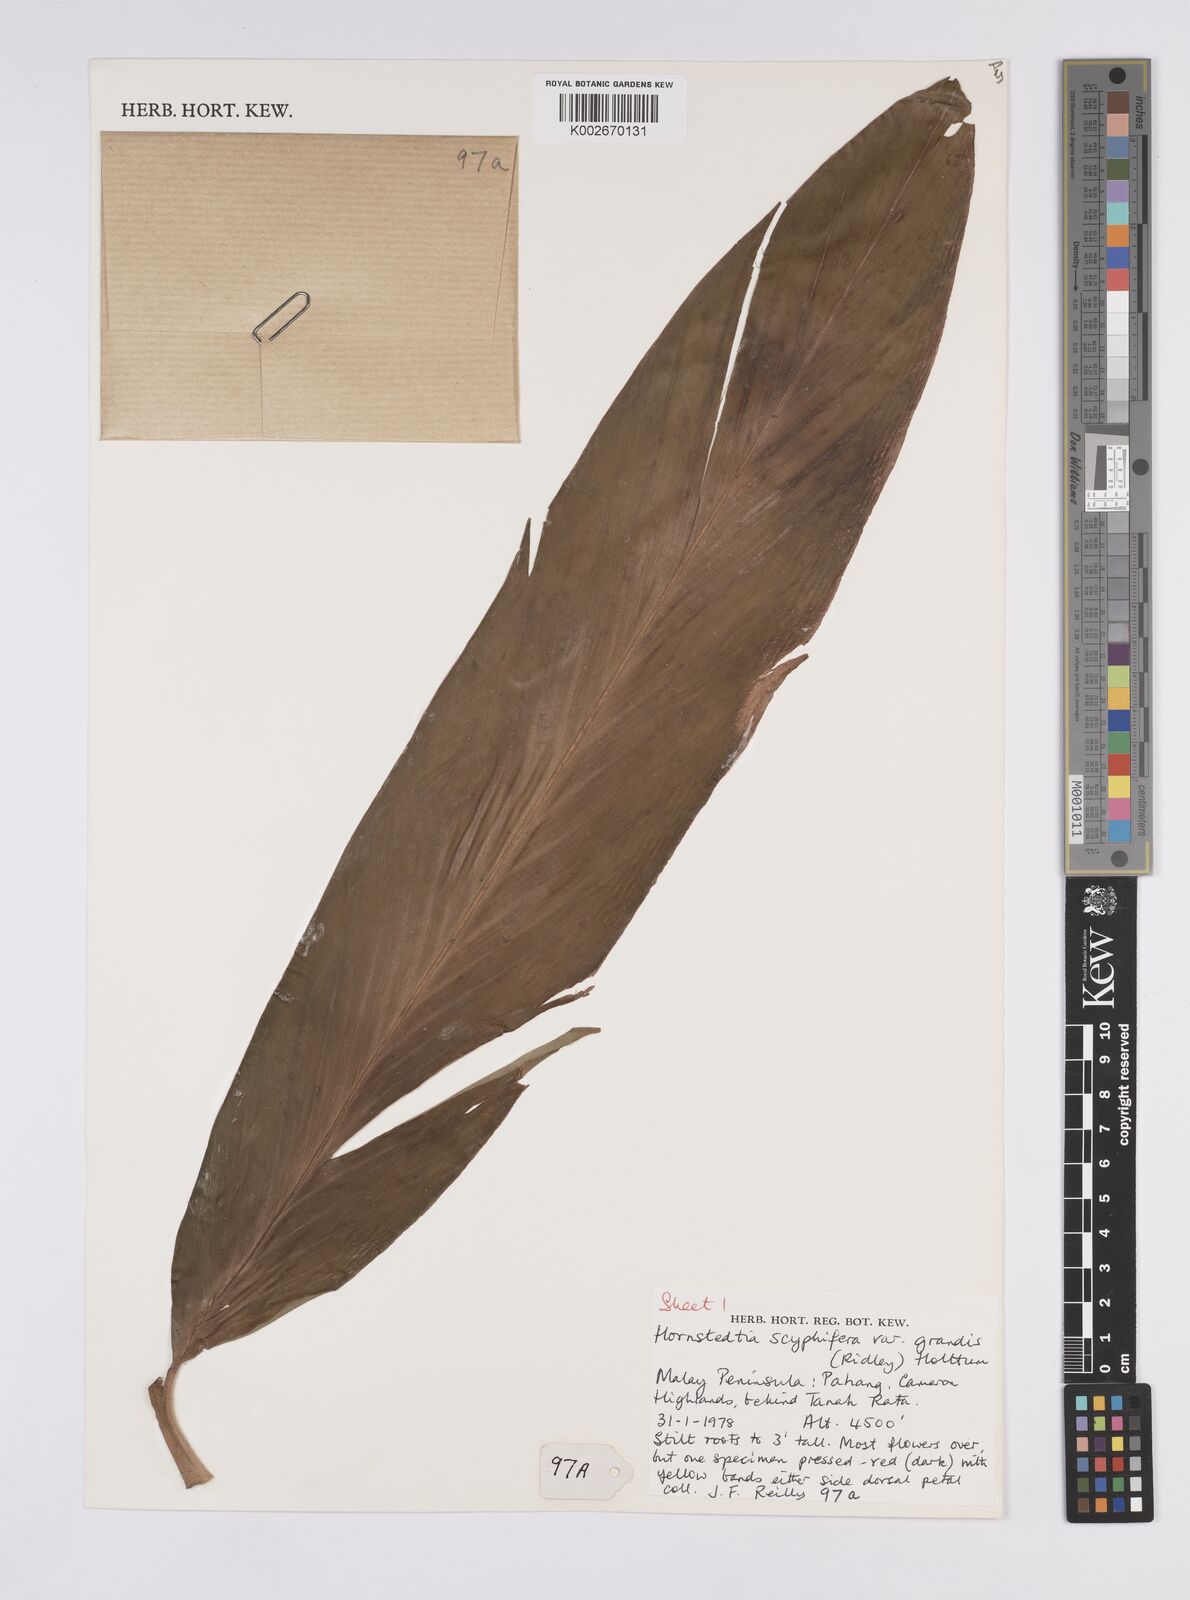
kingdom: Plantae
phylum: Tracheophyta
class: Liliopsida
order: Zingiberales
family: Zingiberaceae
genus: Hornstedtia
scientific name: Hornstedtia scyphifera
